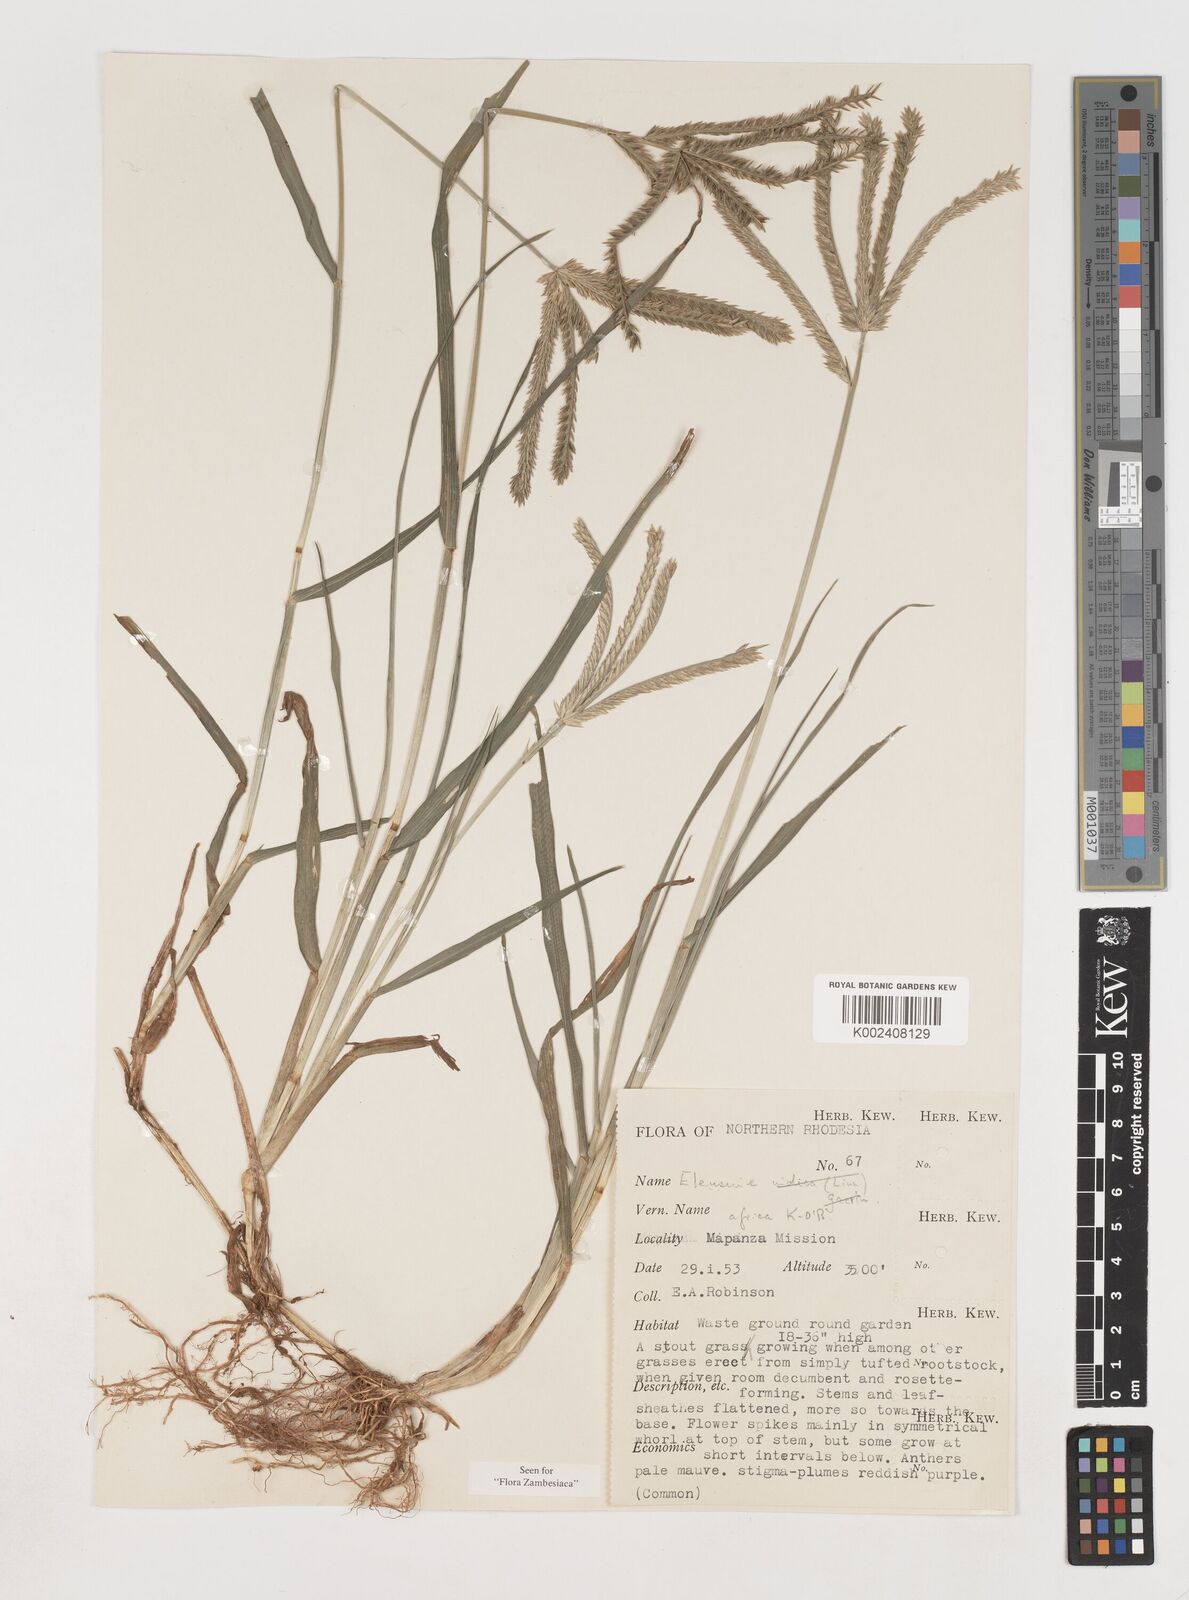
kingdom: Plantae
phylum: Tracheophyta
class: Liliopsida
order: Poales
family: Poaceae
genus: Eleusine
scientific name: Eleusine africana
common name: Wild african finger millet
